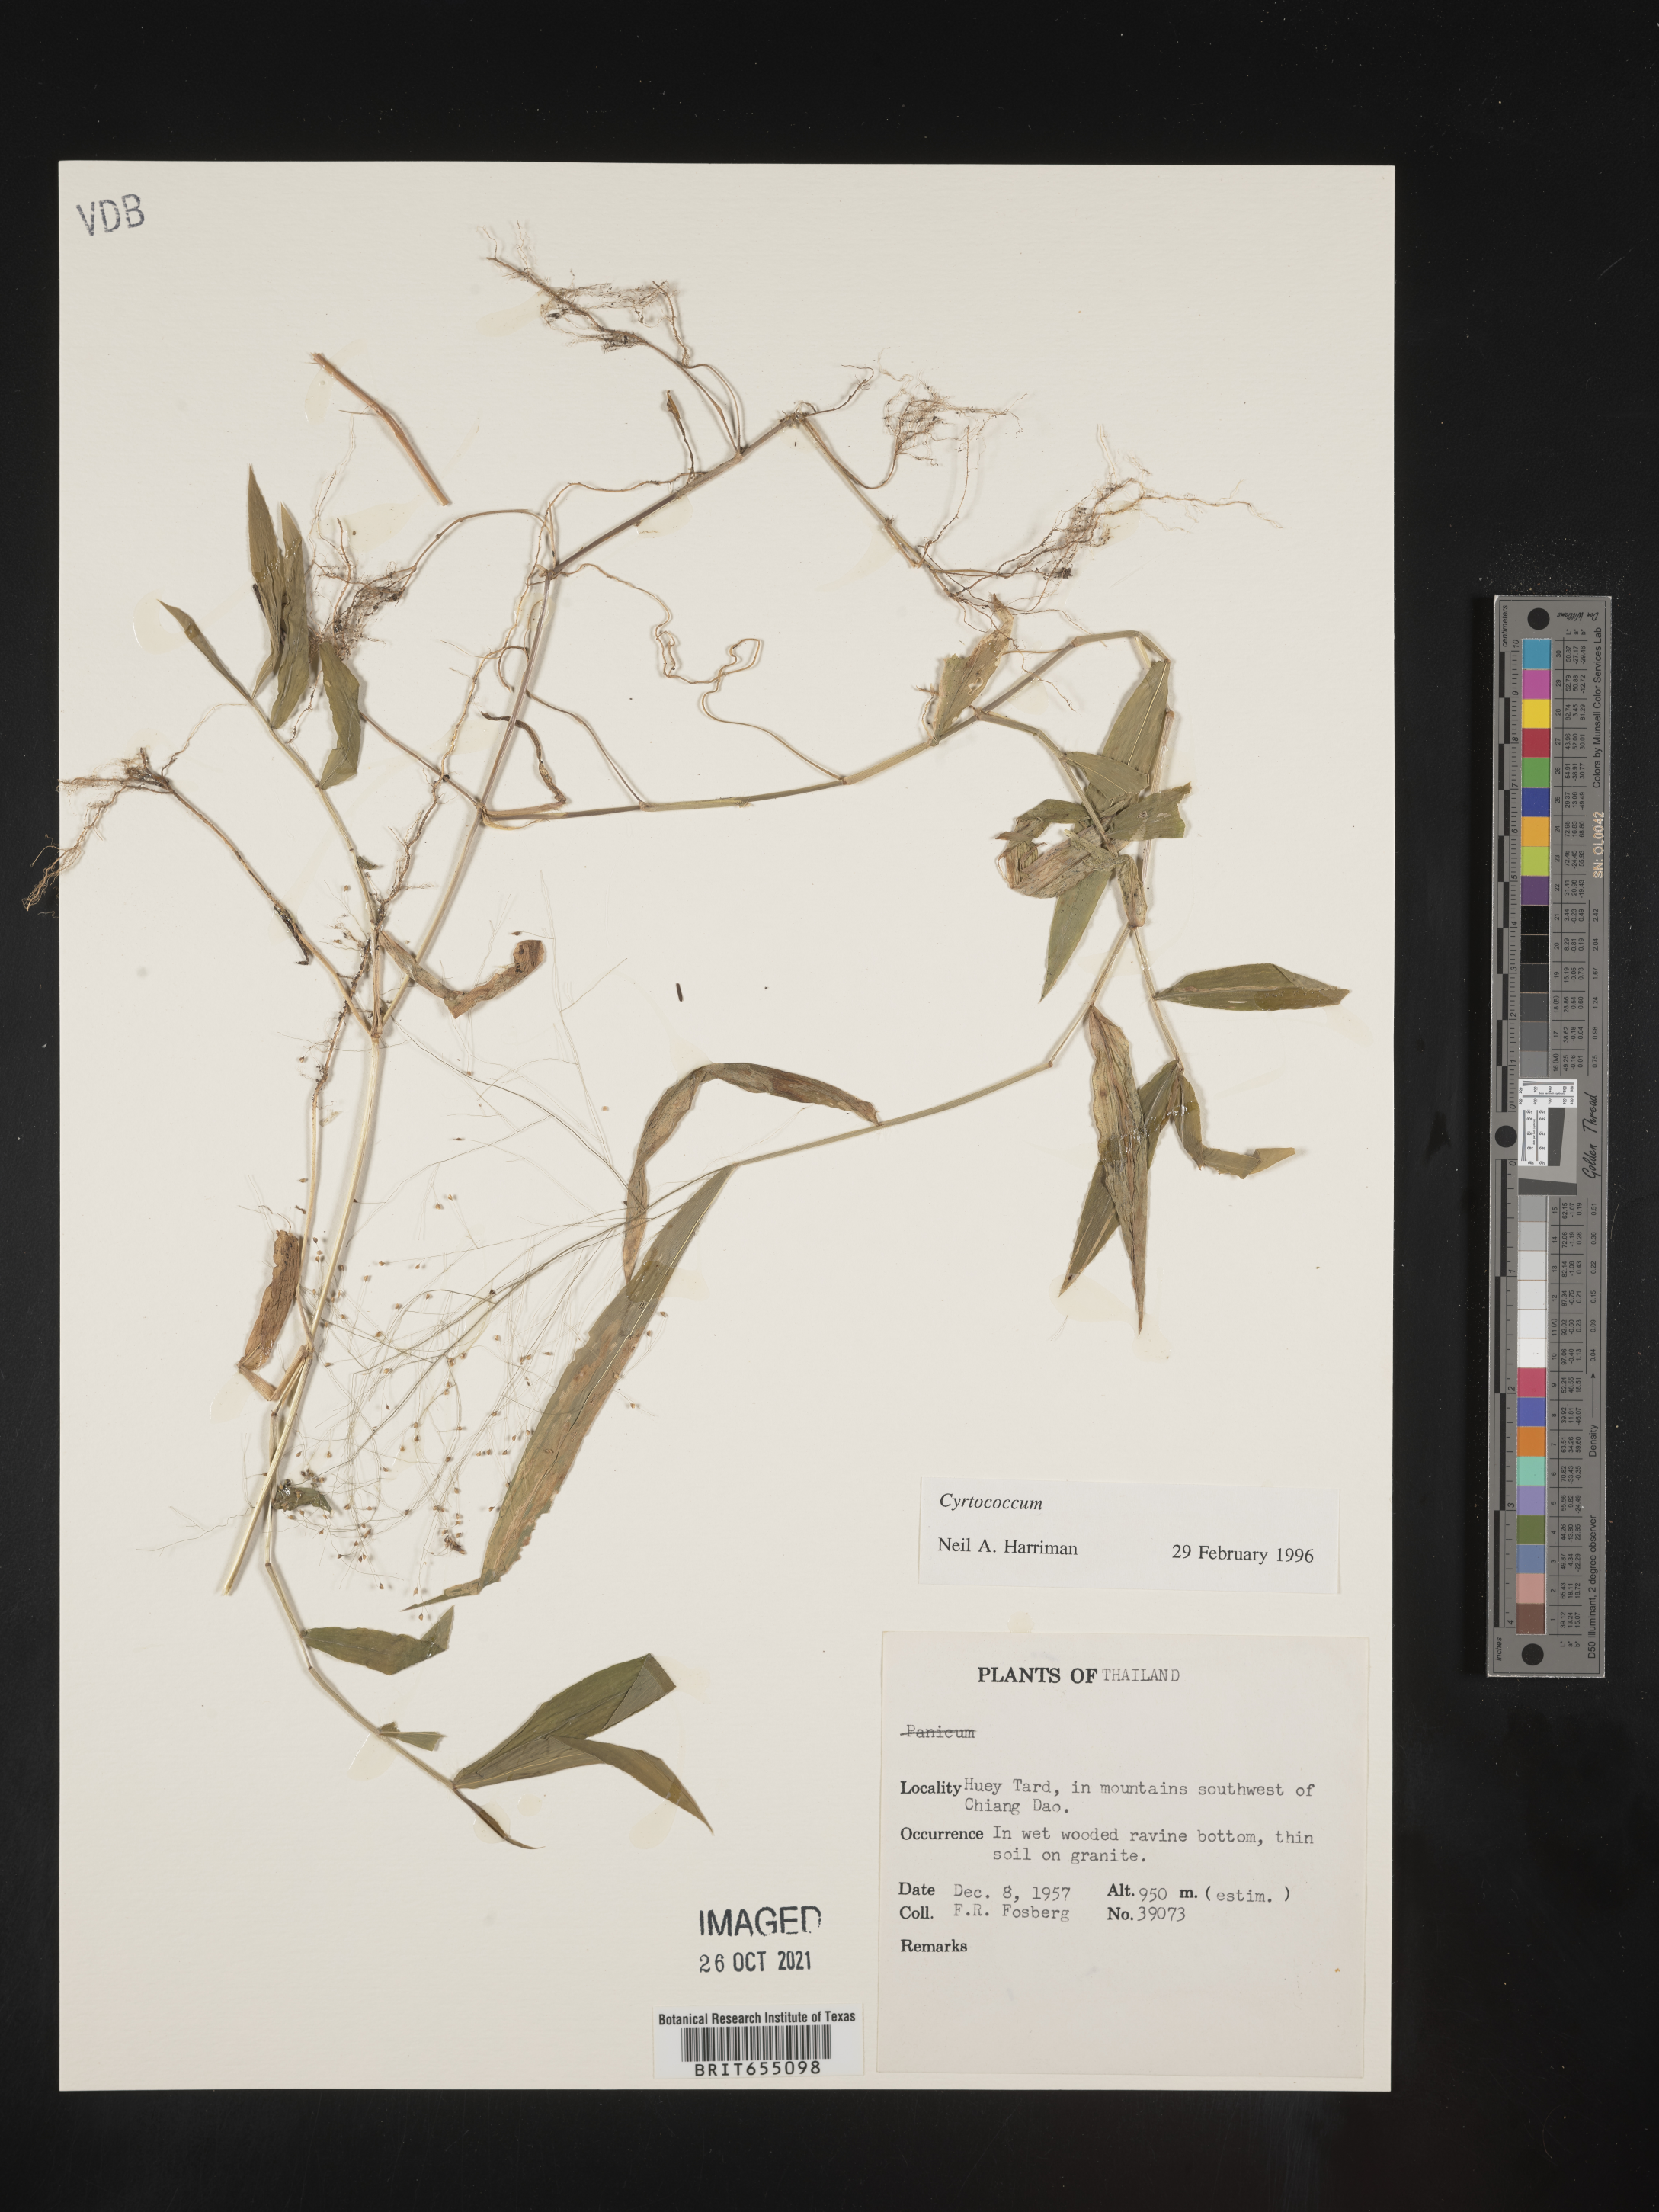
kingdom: Plantae
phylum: Tracheophyta
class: Liliopsida
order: Poales
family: Poaceae
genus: Cyrtococcum
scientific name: Cyrtococcum
